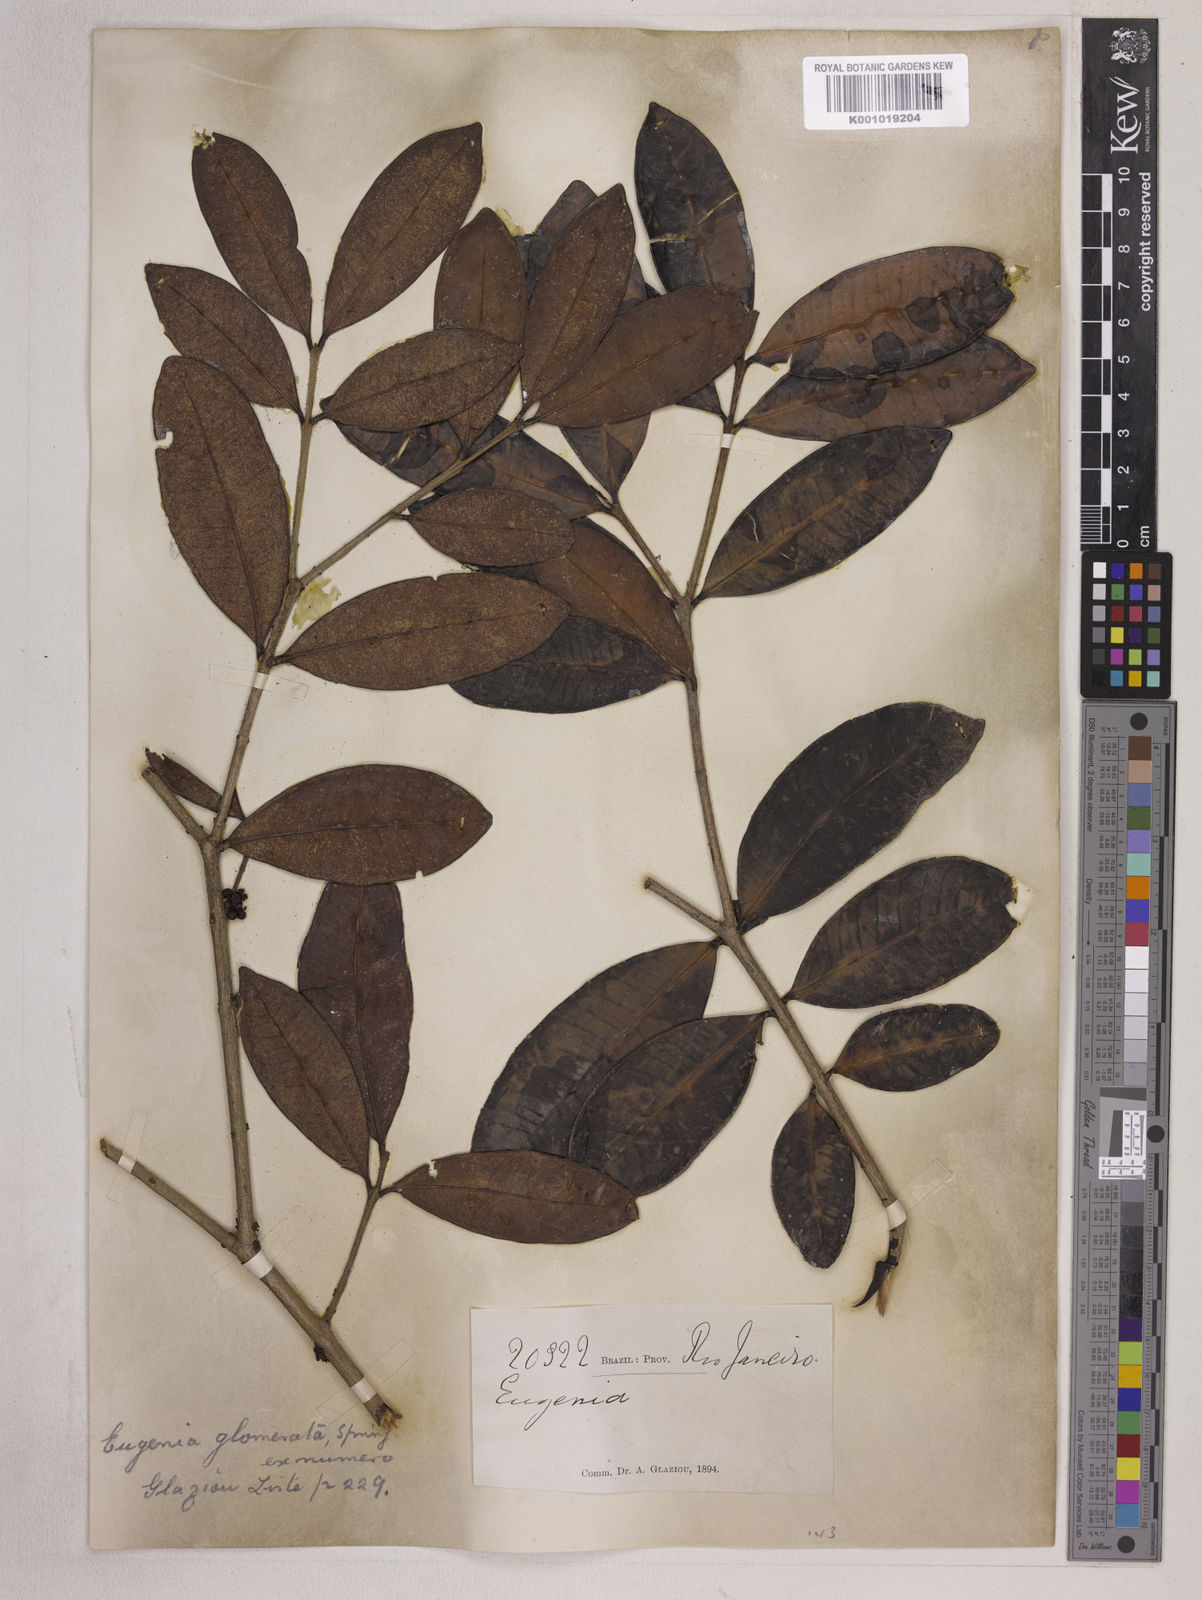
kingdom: Plantae
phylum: Tracheophyta
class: Magnoliopsida
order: Myrtales
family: Myrtaceae
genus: Eugenia
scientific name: Eugenia neoglomerata
